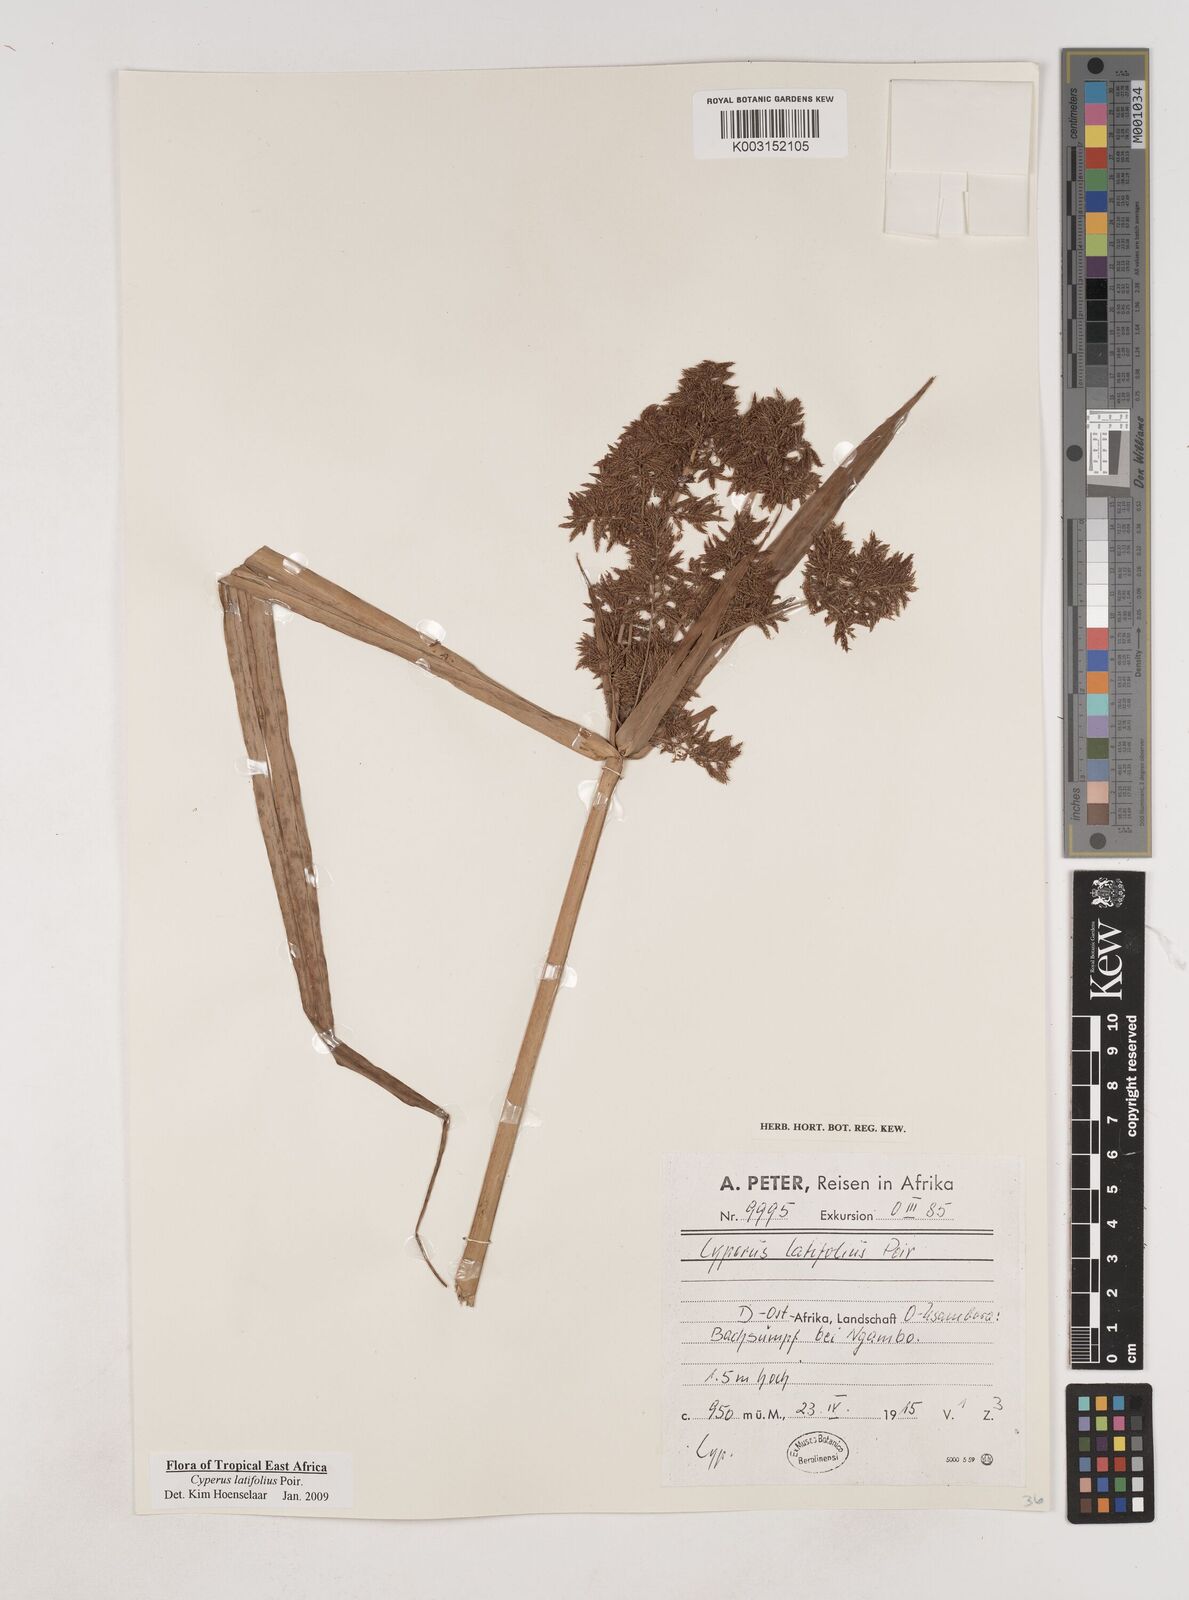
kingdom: Plantae
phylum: Tracheophyta
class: Liliopsida
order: Poales
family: Cyperaceae
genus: Cyperus
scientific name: Cyperus latifolius
